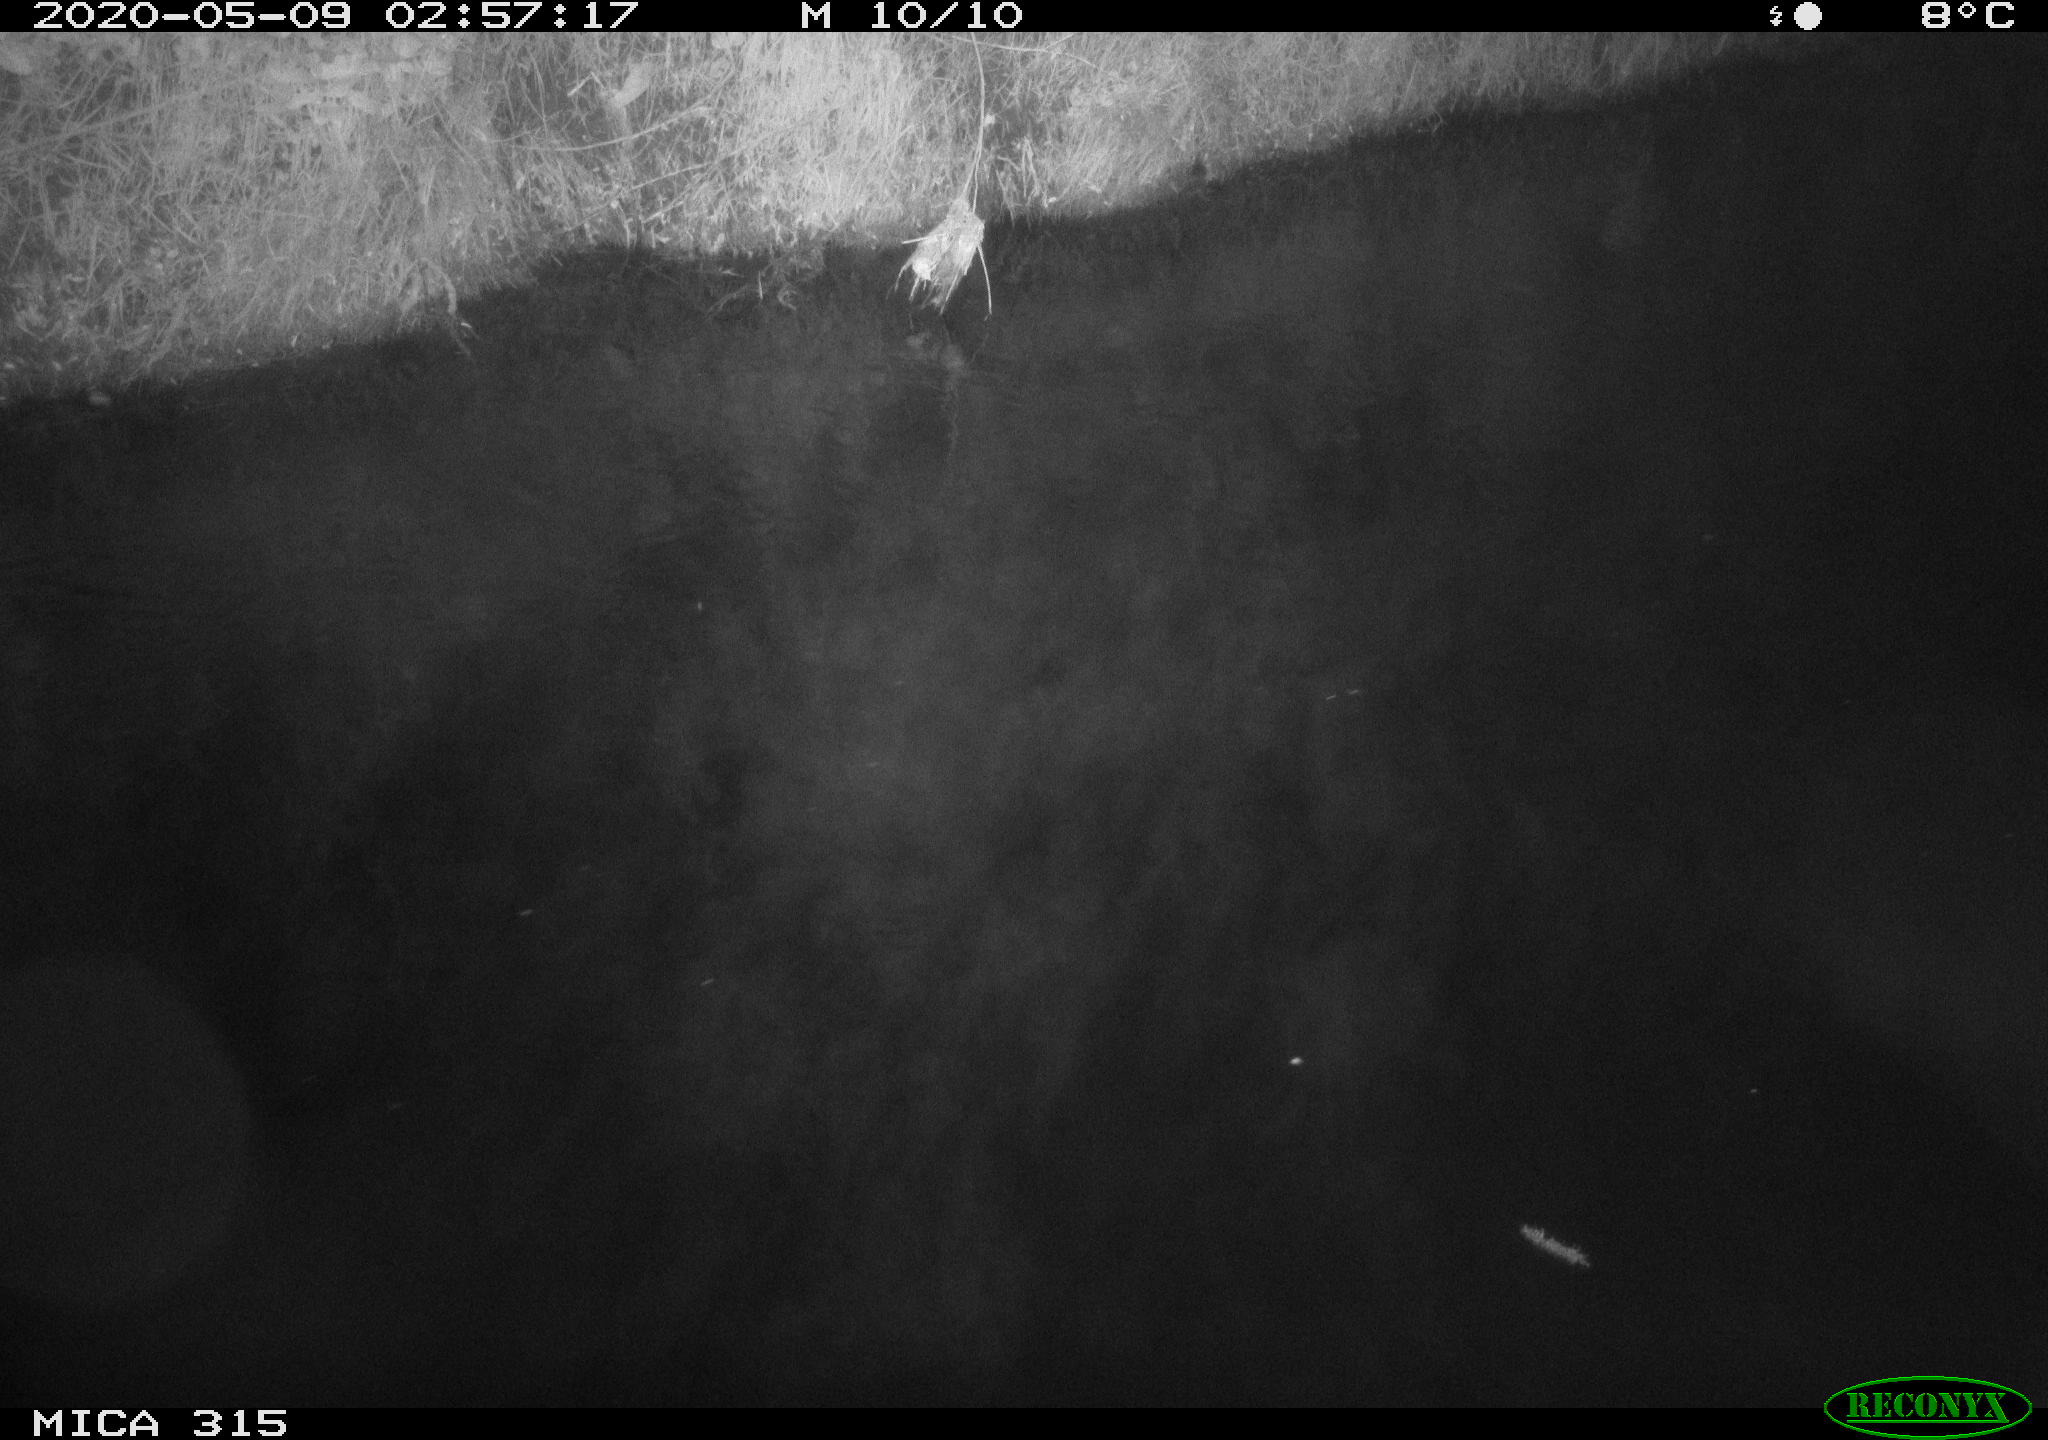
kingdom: Animalia
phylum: Chordata
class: Aves
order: Anseriformes
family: Anatidae
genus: Anas
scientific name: Anas platyrhynchos
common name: Mallard
